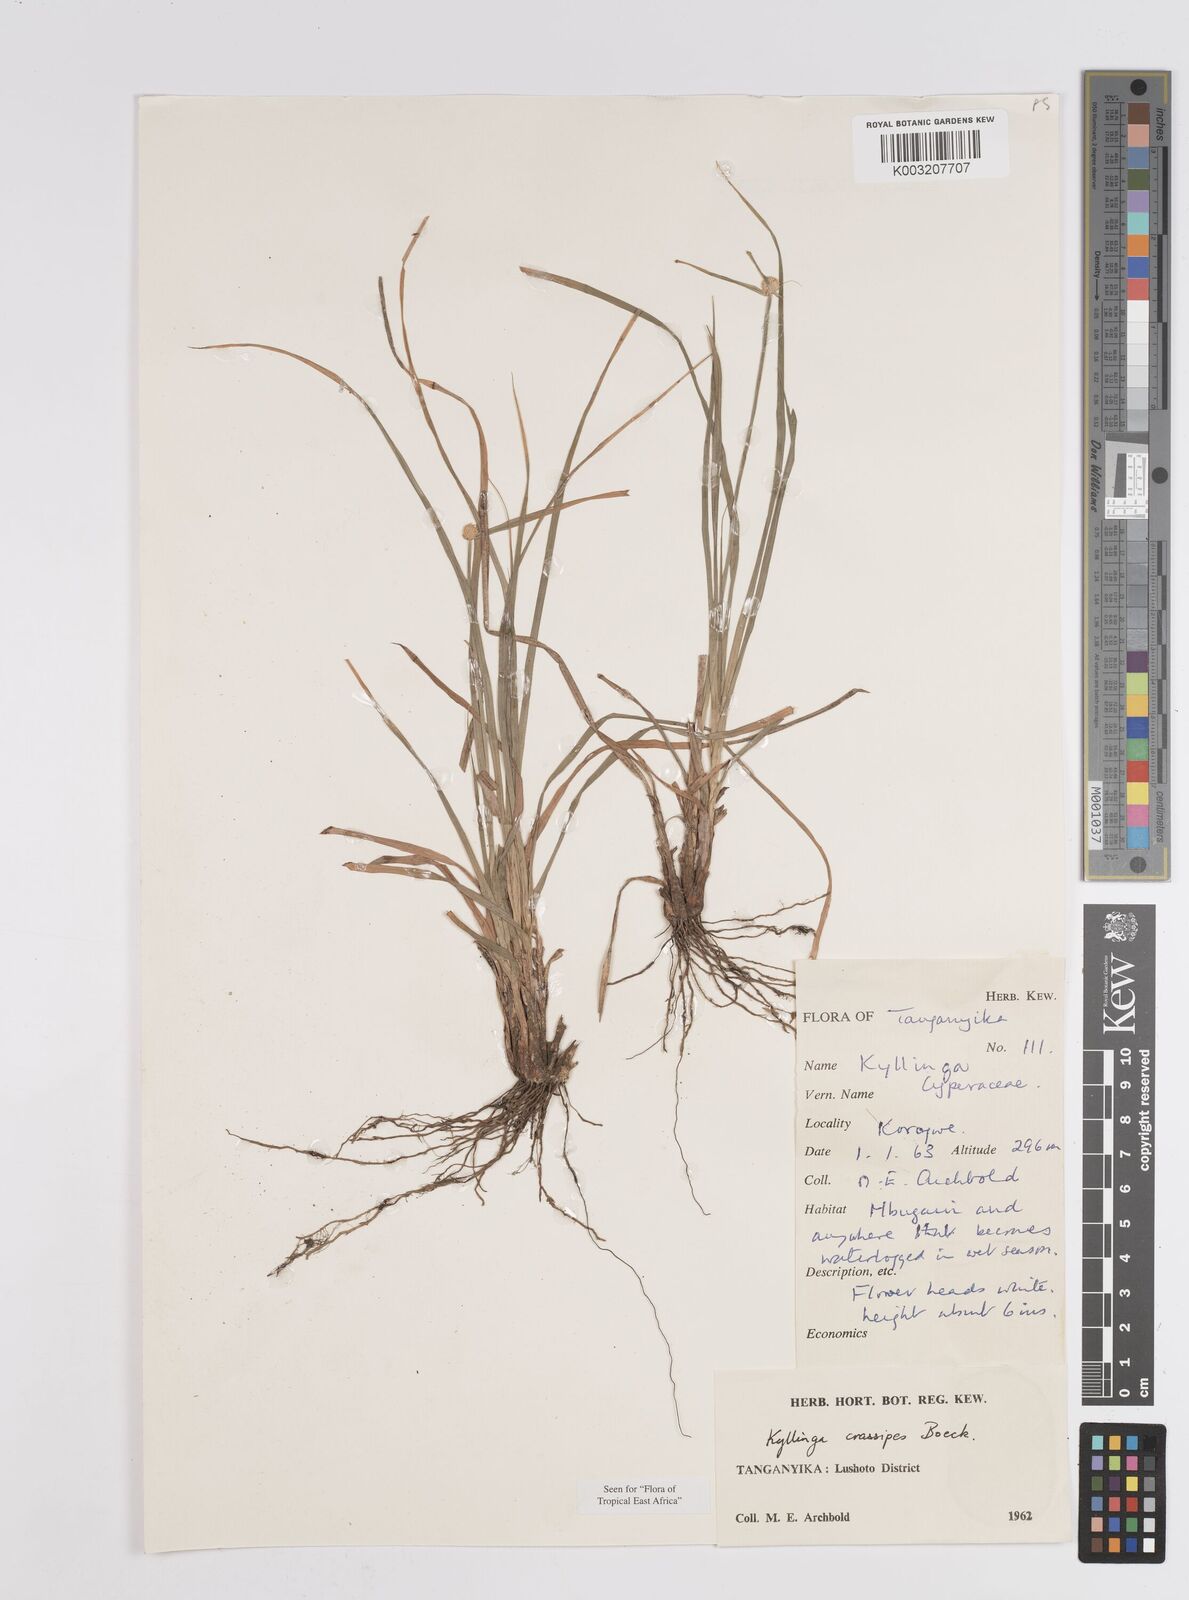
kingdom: Plantae
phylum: Tracheophyta
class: Liliopsida
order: Poales
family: Cyperaceae
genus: Cyperus
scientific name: Cyperus crassipes
